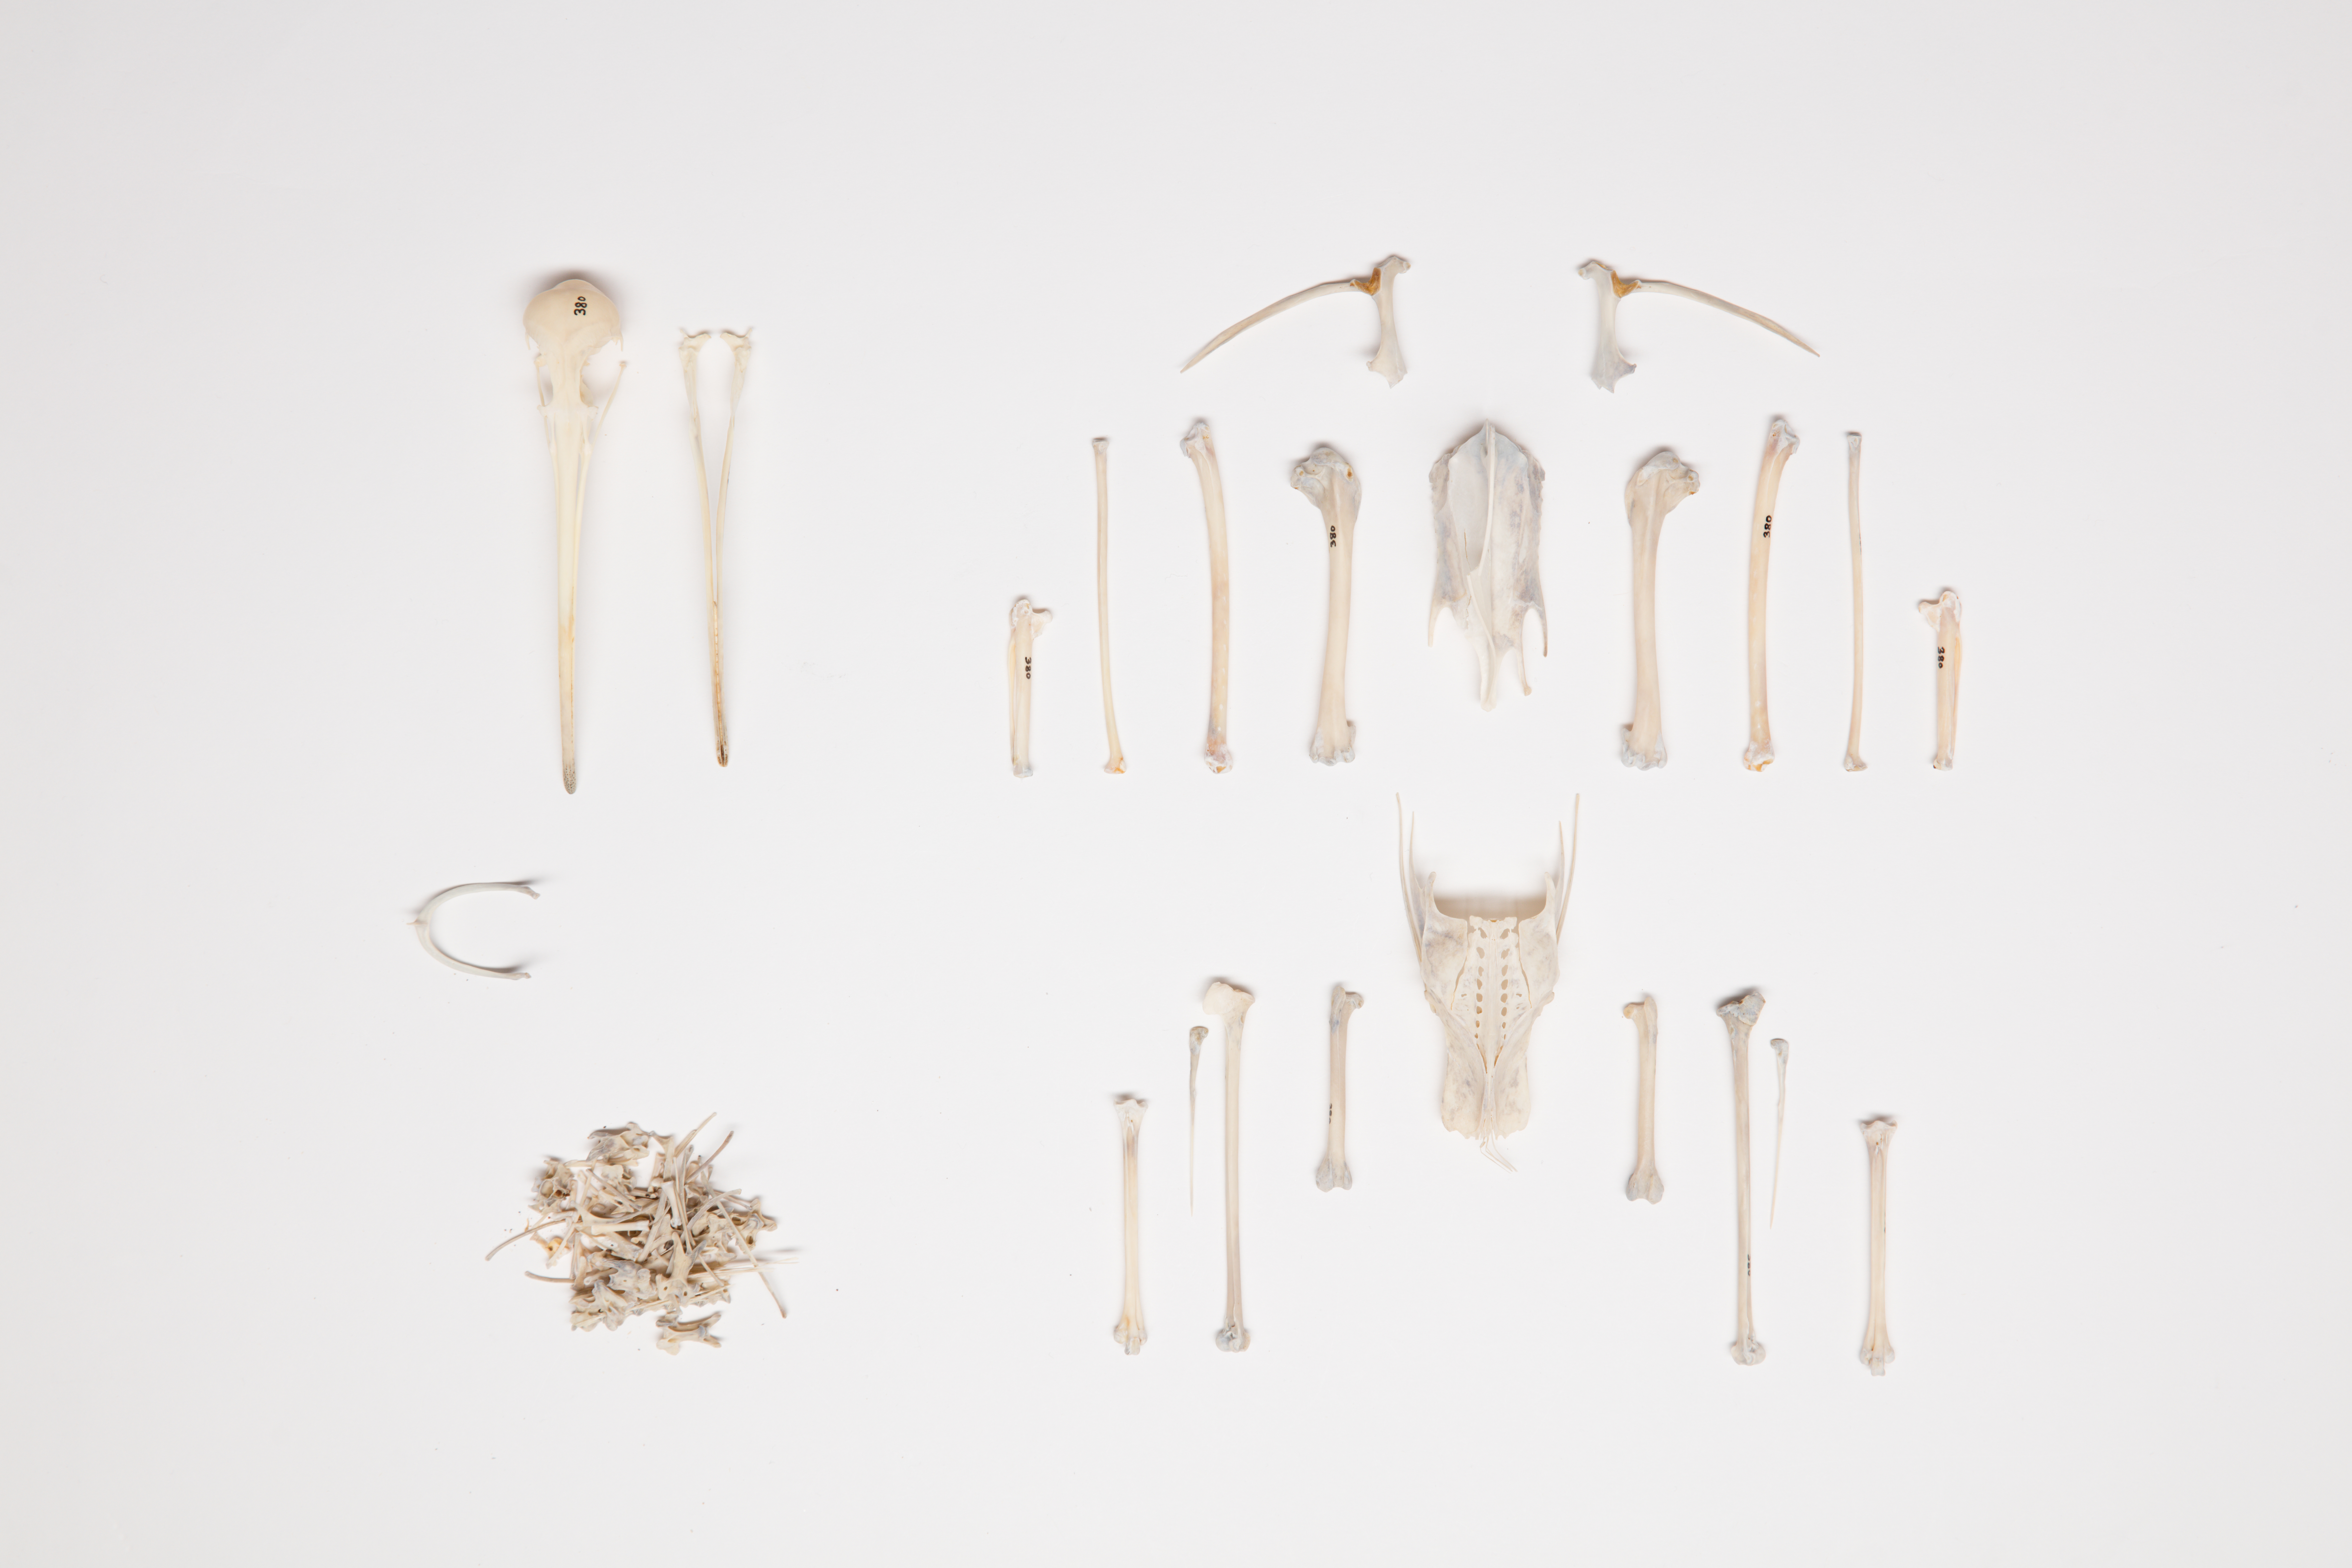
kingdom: Animalia
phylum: Chordata
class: Aves
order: Charadriiformes
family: Scolopacidae
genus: Numenius
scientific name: Numenius phaeopus
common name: Whimbrel
